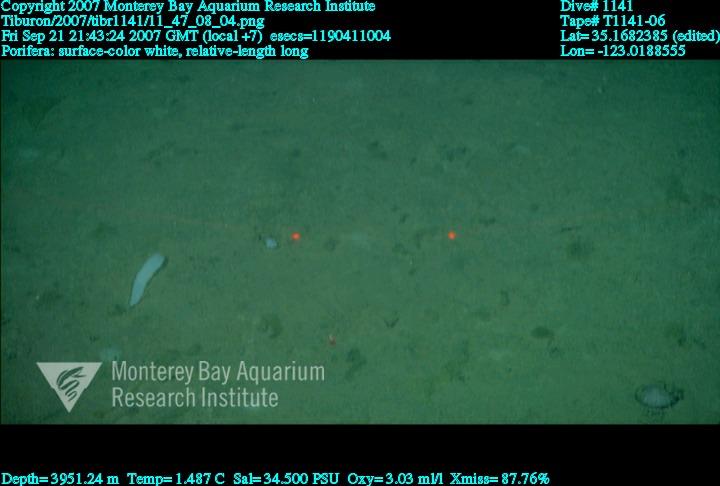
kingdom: Animalia
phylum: Porifera
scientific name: Porifera
